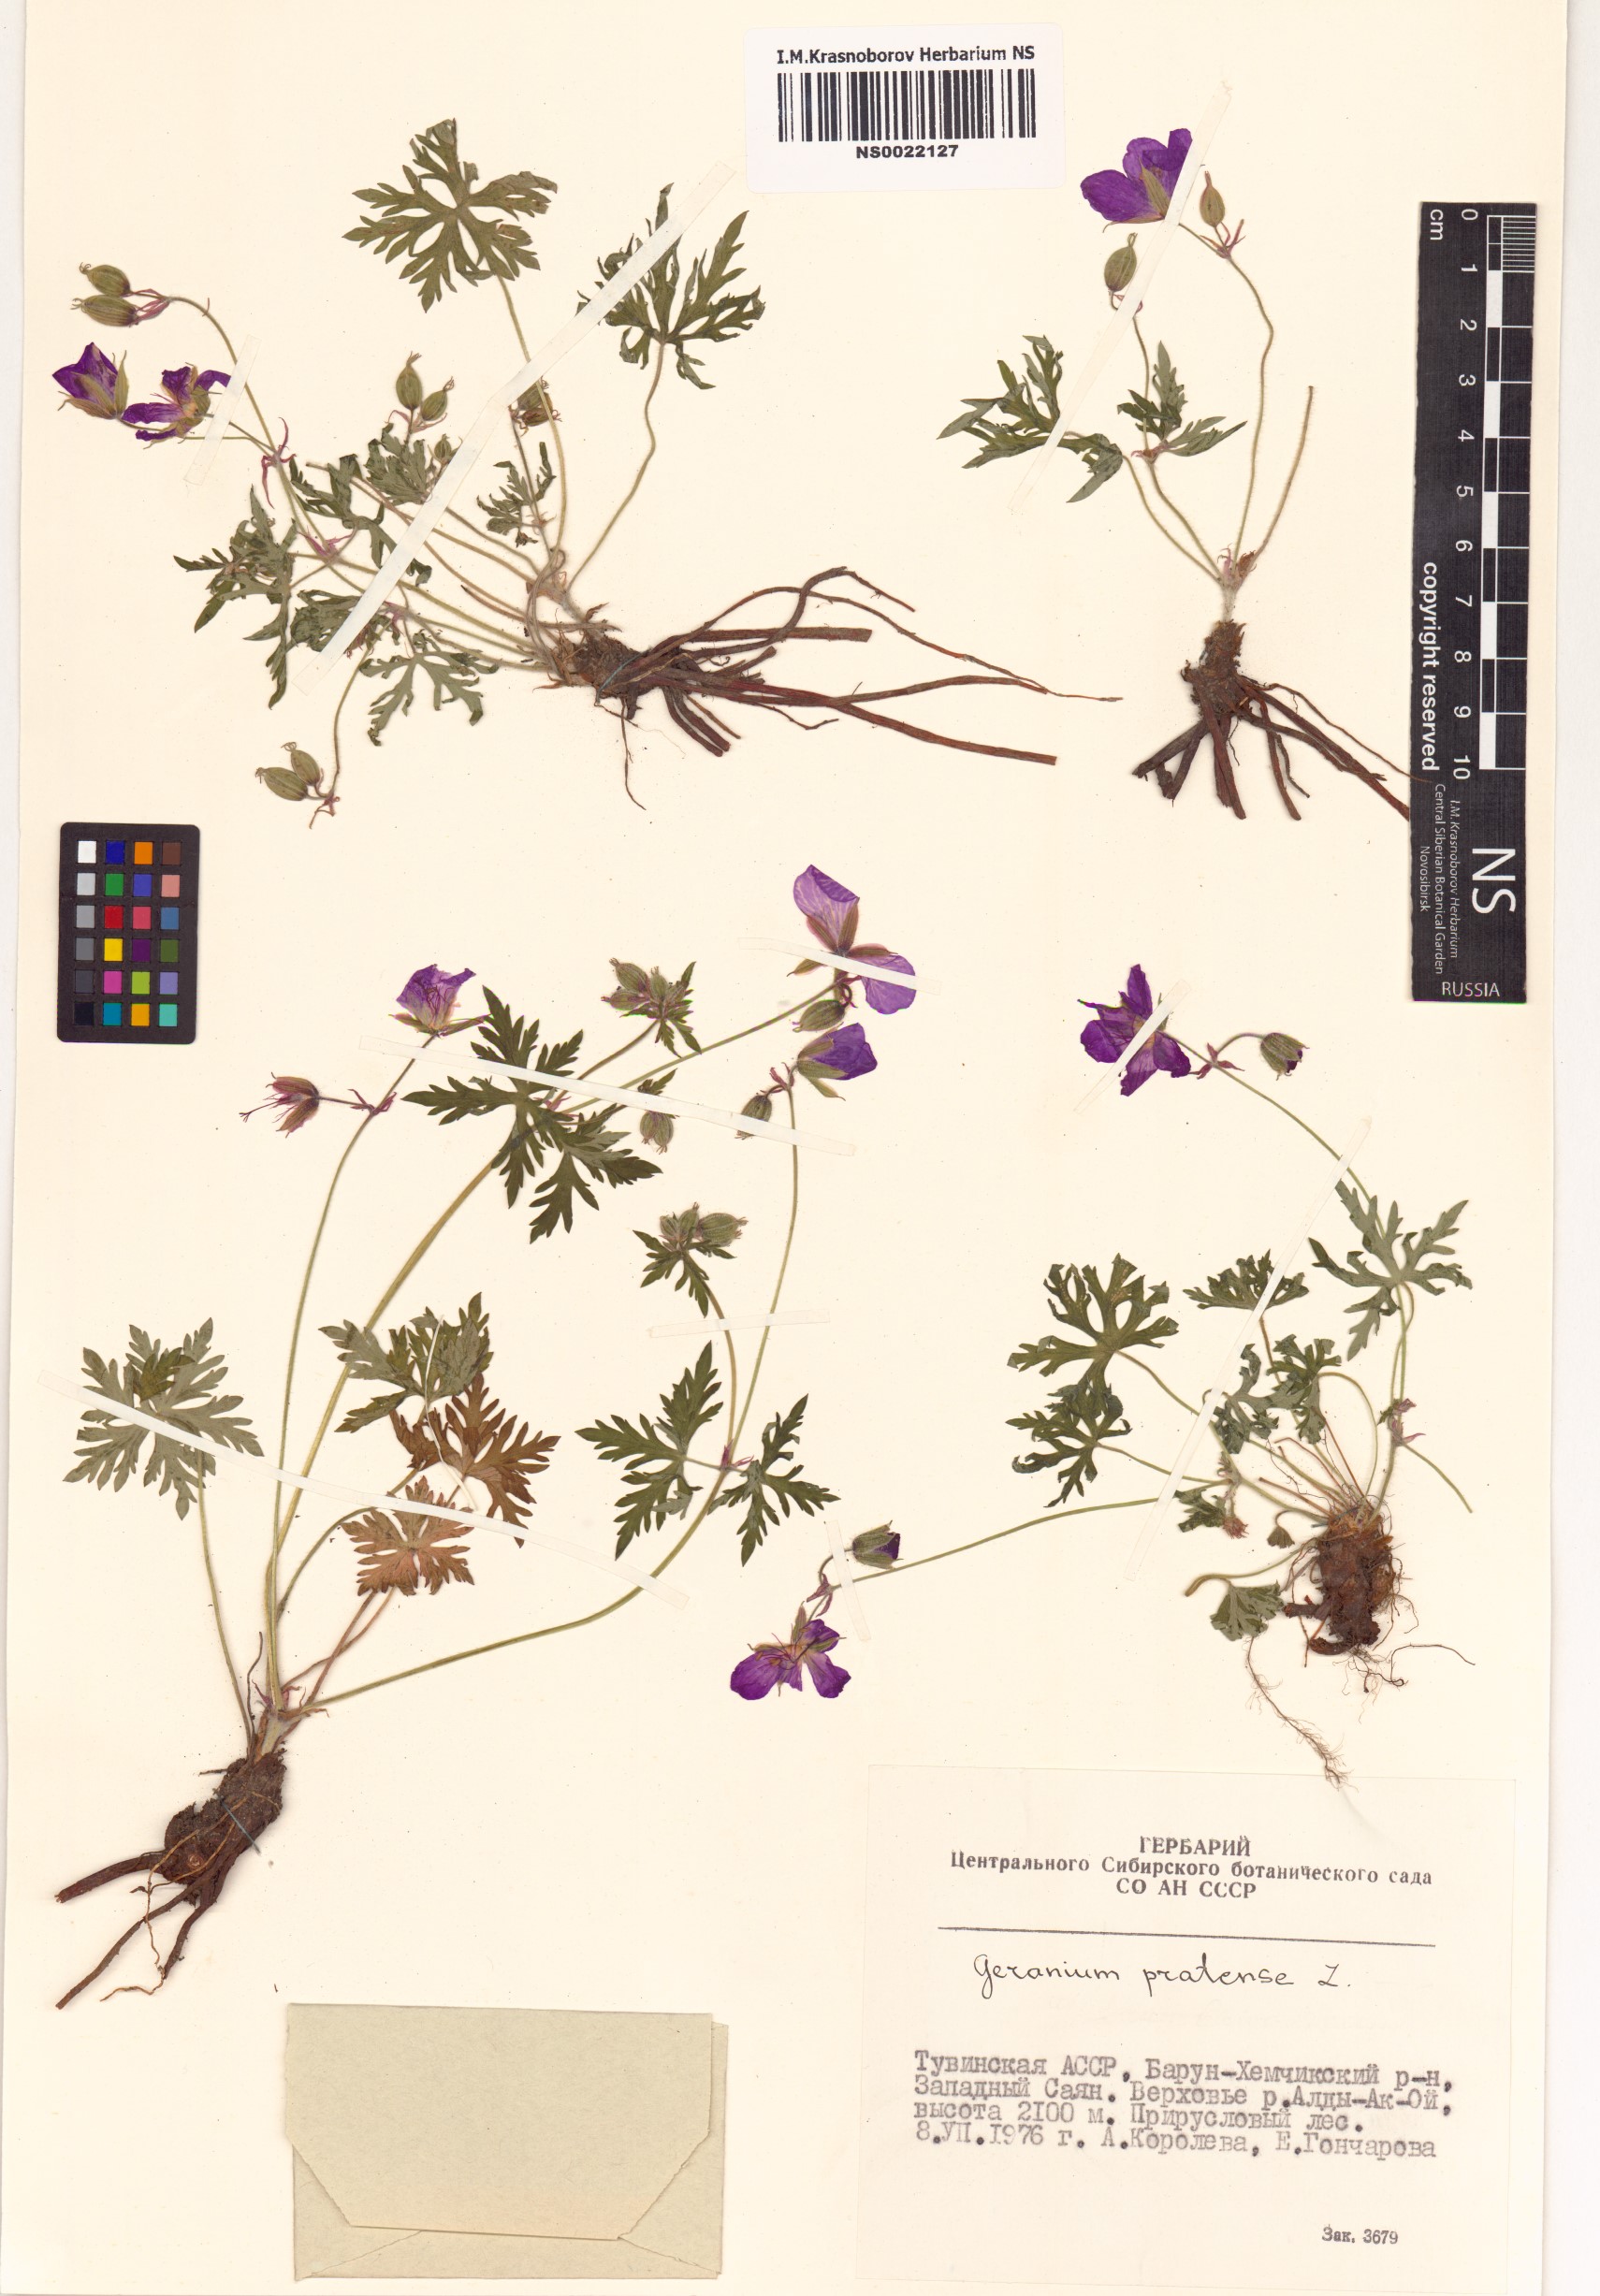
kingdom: Plantae
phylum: Tracheophyta
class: Magnoliopsida
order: Geraniales
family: Geraniaceae
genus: Geranium
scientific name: Geranium pratense
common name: Meadow crane's-bill
